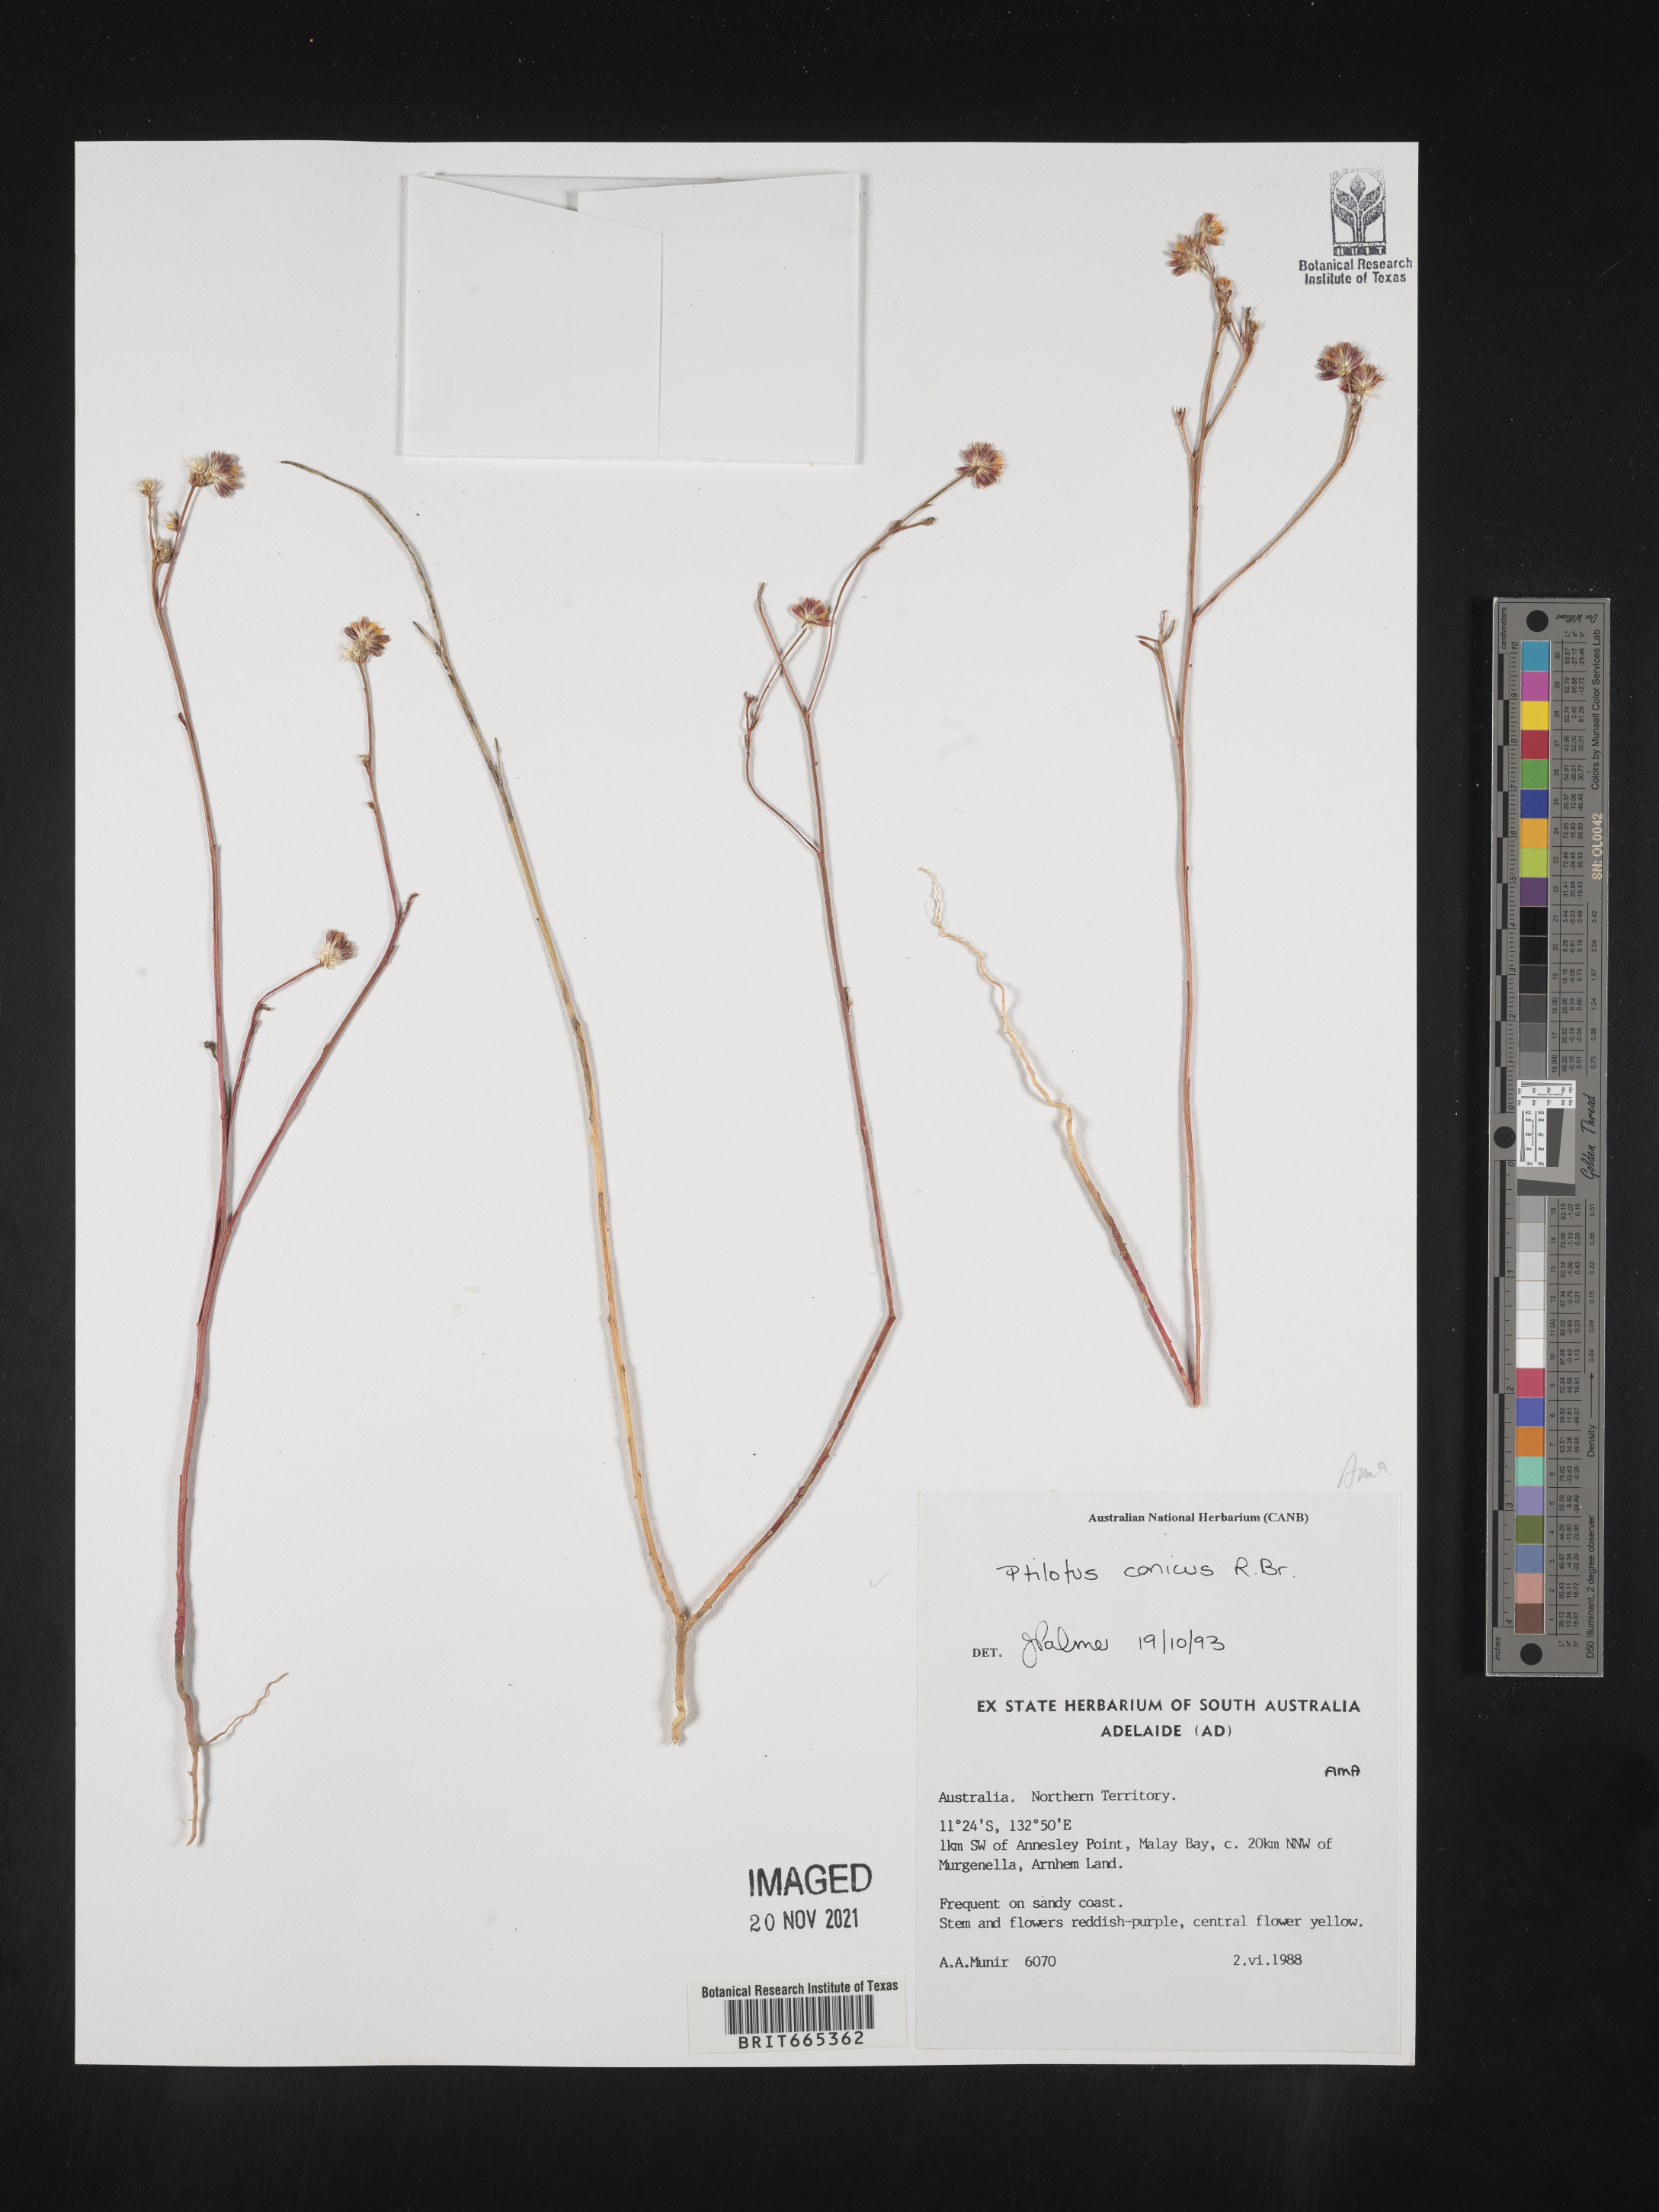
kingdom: Plantae
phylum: Tracheophyta
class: Magnoliopsida
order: Caryophyllales
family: Amaranthaceae
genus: Ptilotus
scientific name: Ptilotus
